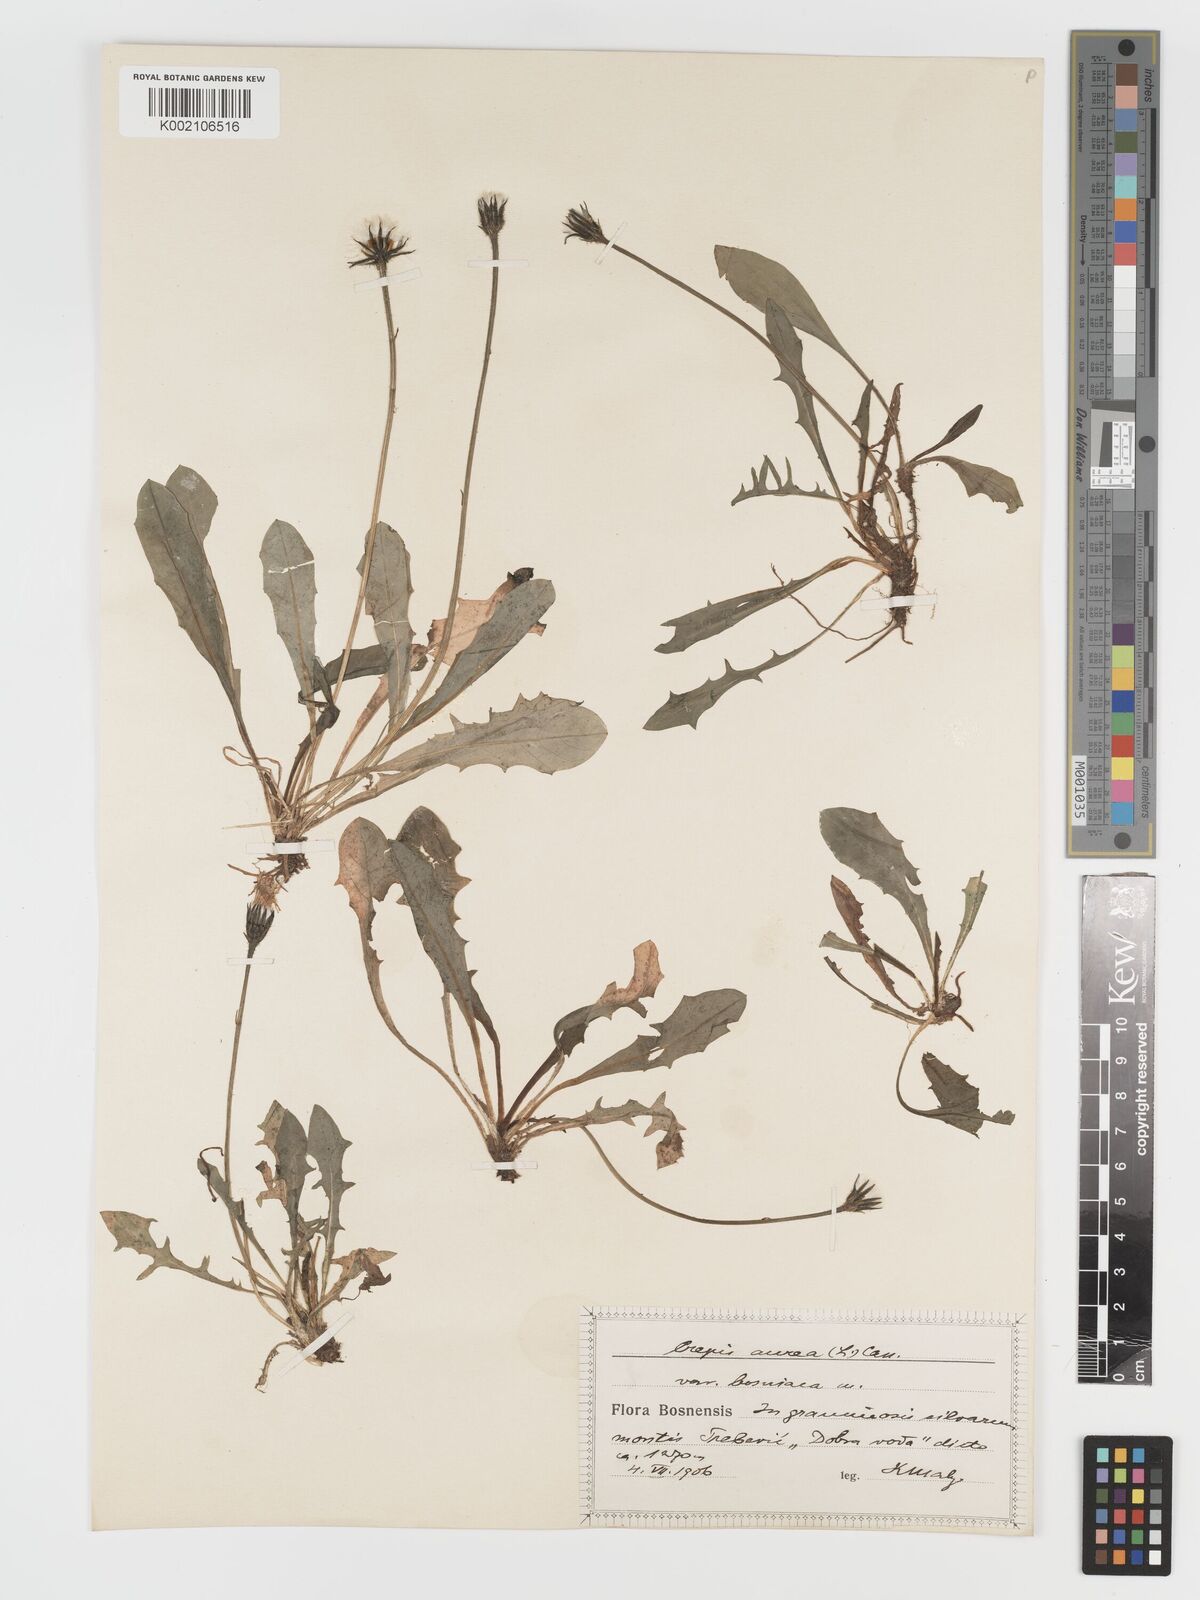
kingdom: Plantae
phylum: Tracheophyta
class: Magnoliopsida
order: Asterales
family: Asteraceae
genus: Crepis
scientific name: Crepis aurea
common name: Golden hawk's-beard
